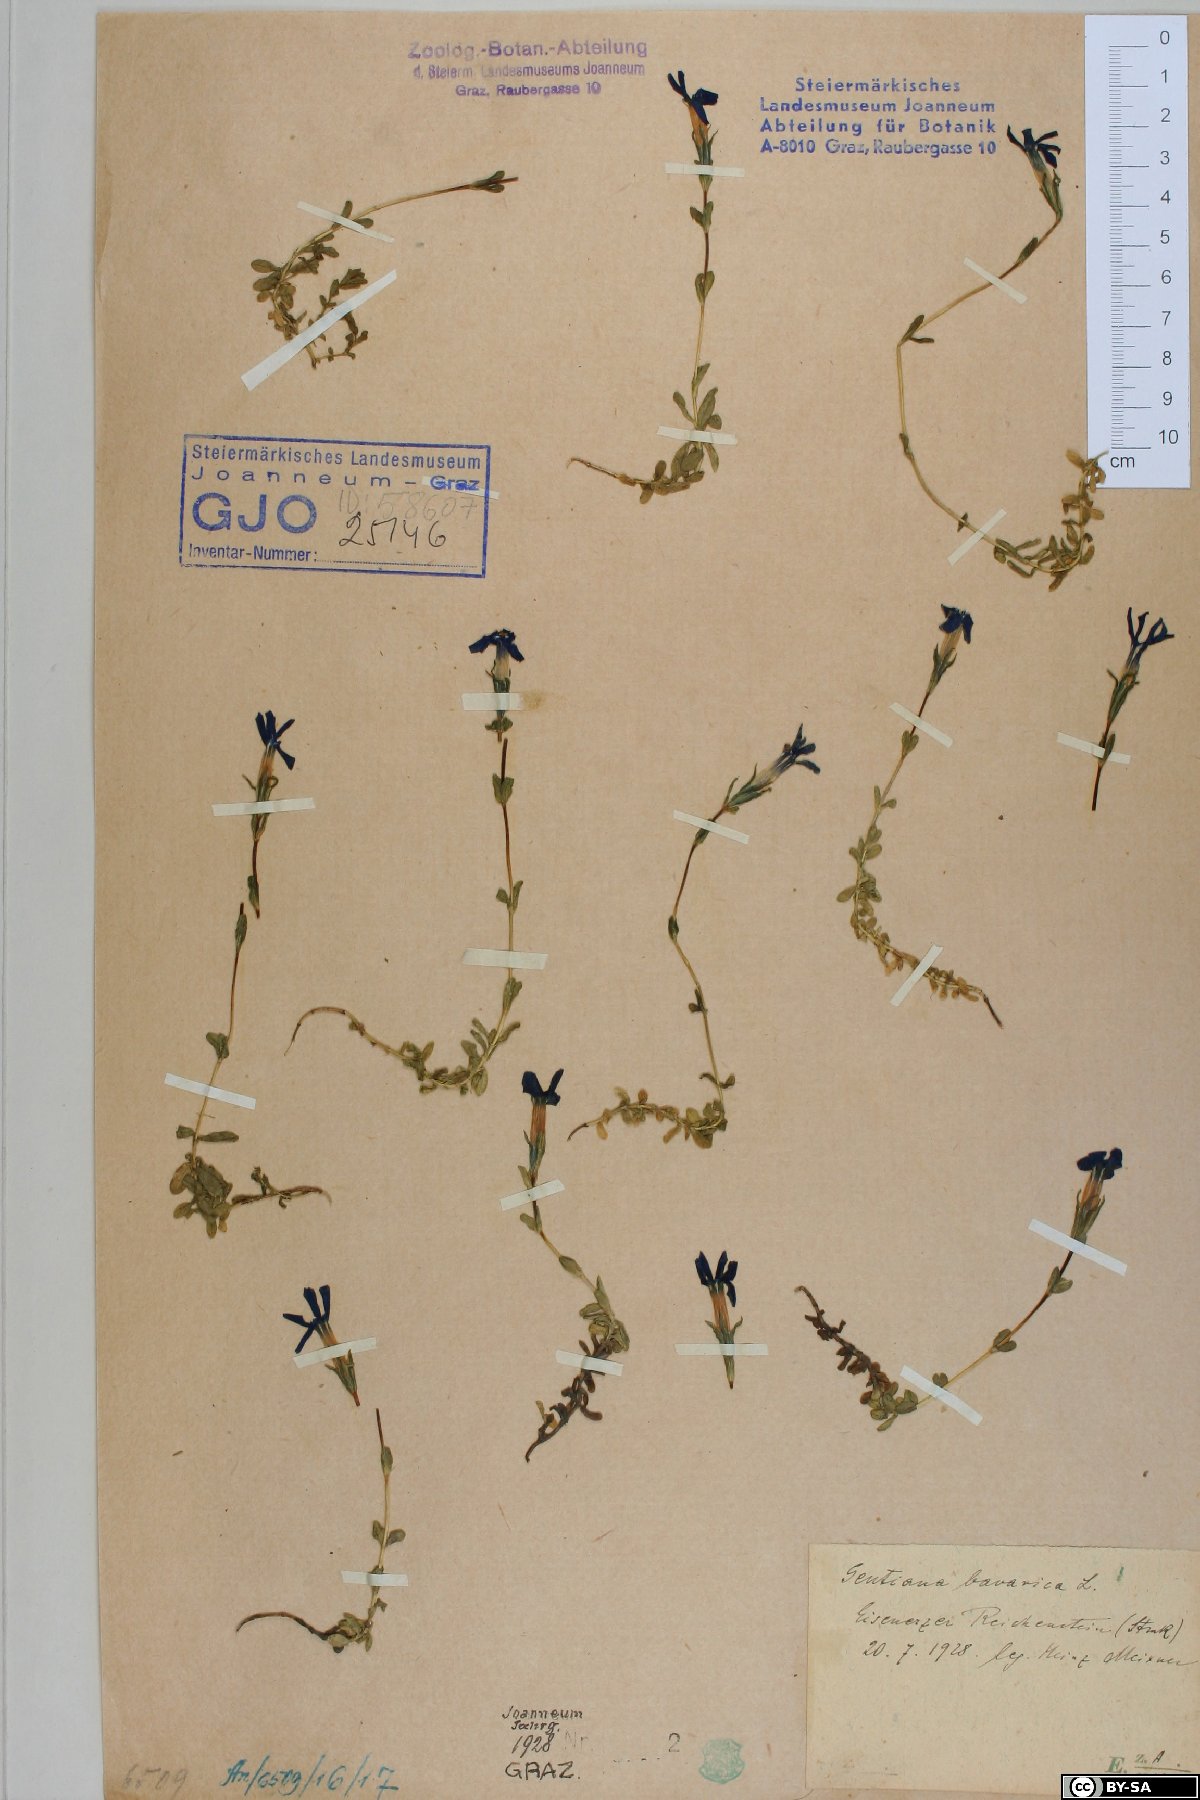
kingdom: Plantae
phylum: Tracheophyta
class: Magnoliopsida
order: Gentianales
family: Gentianaceae
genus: Gentiana
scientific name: Gentiana bavarica
